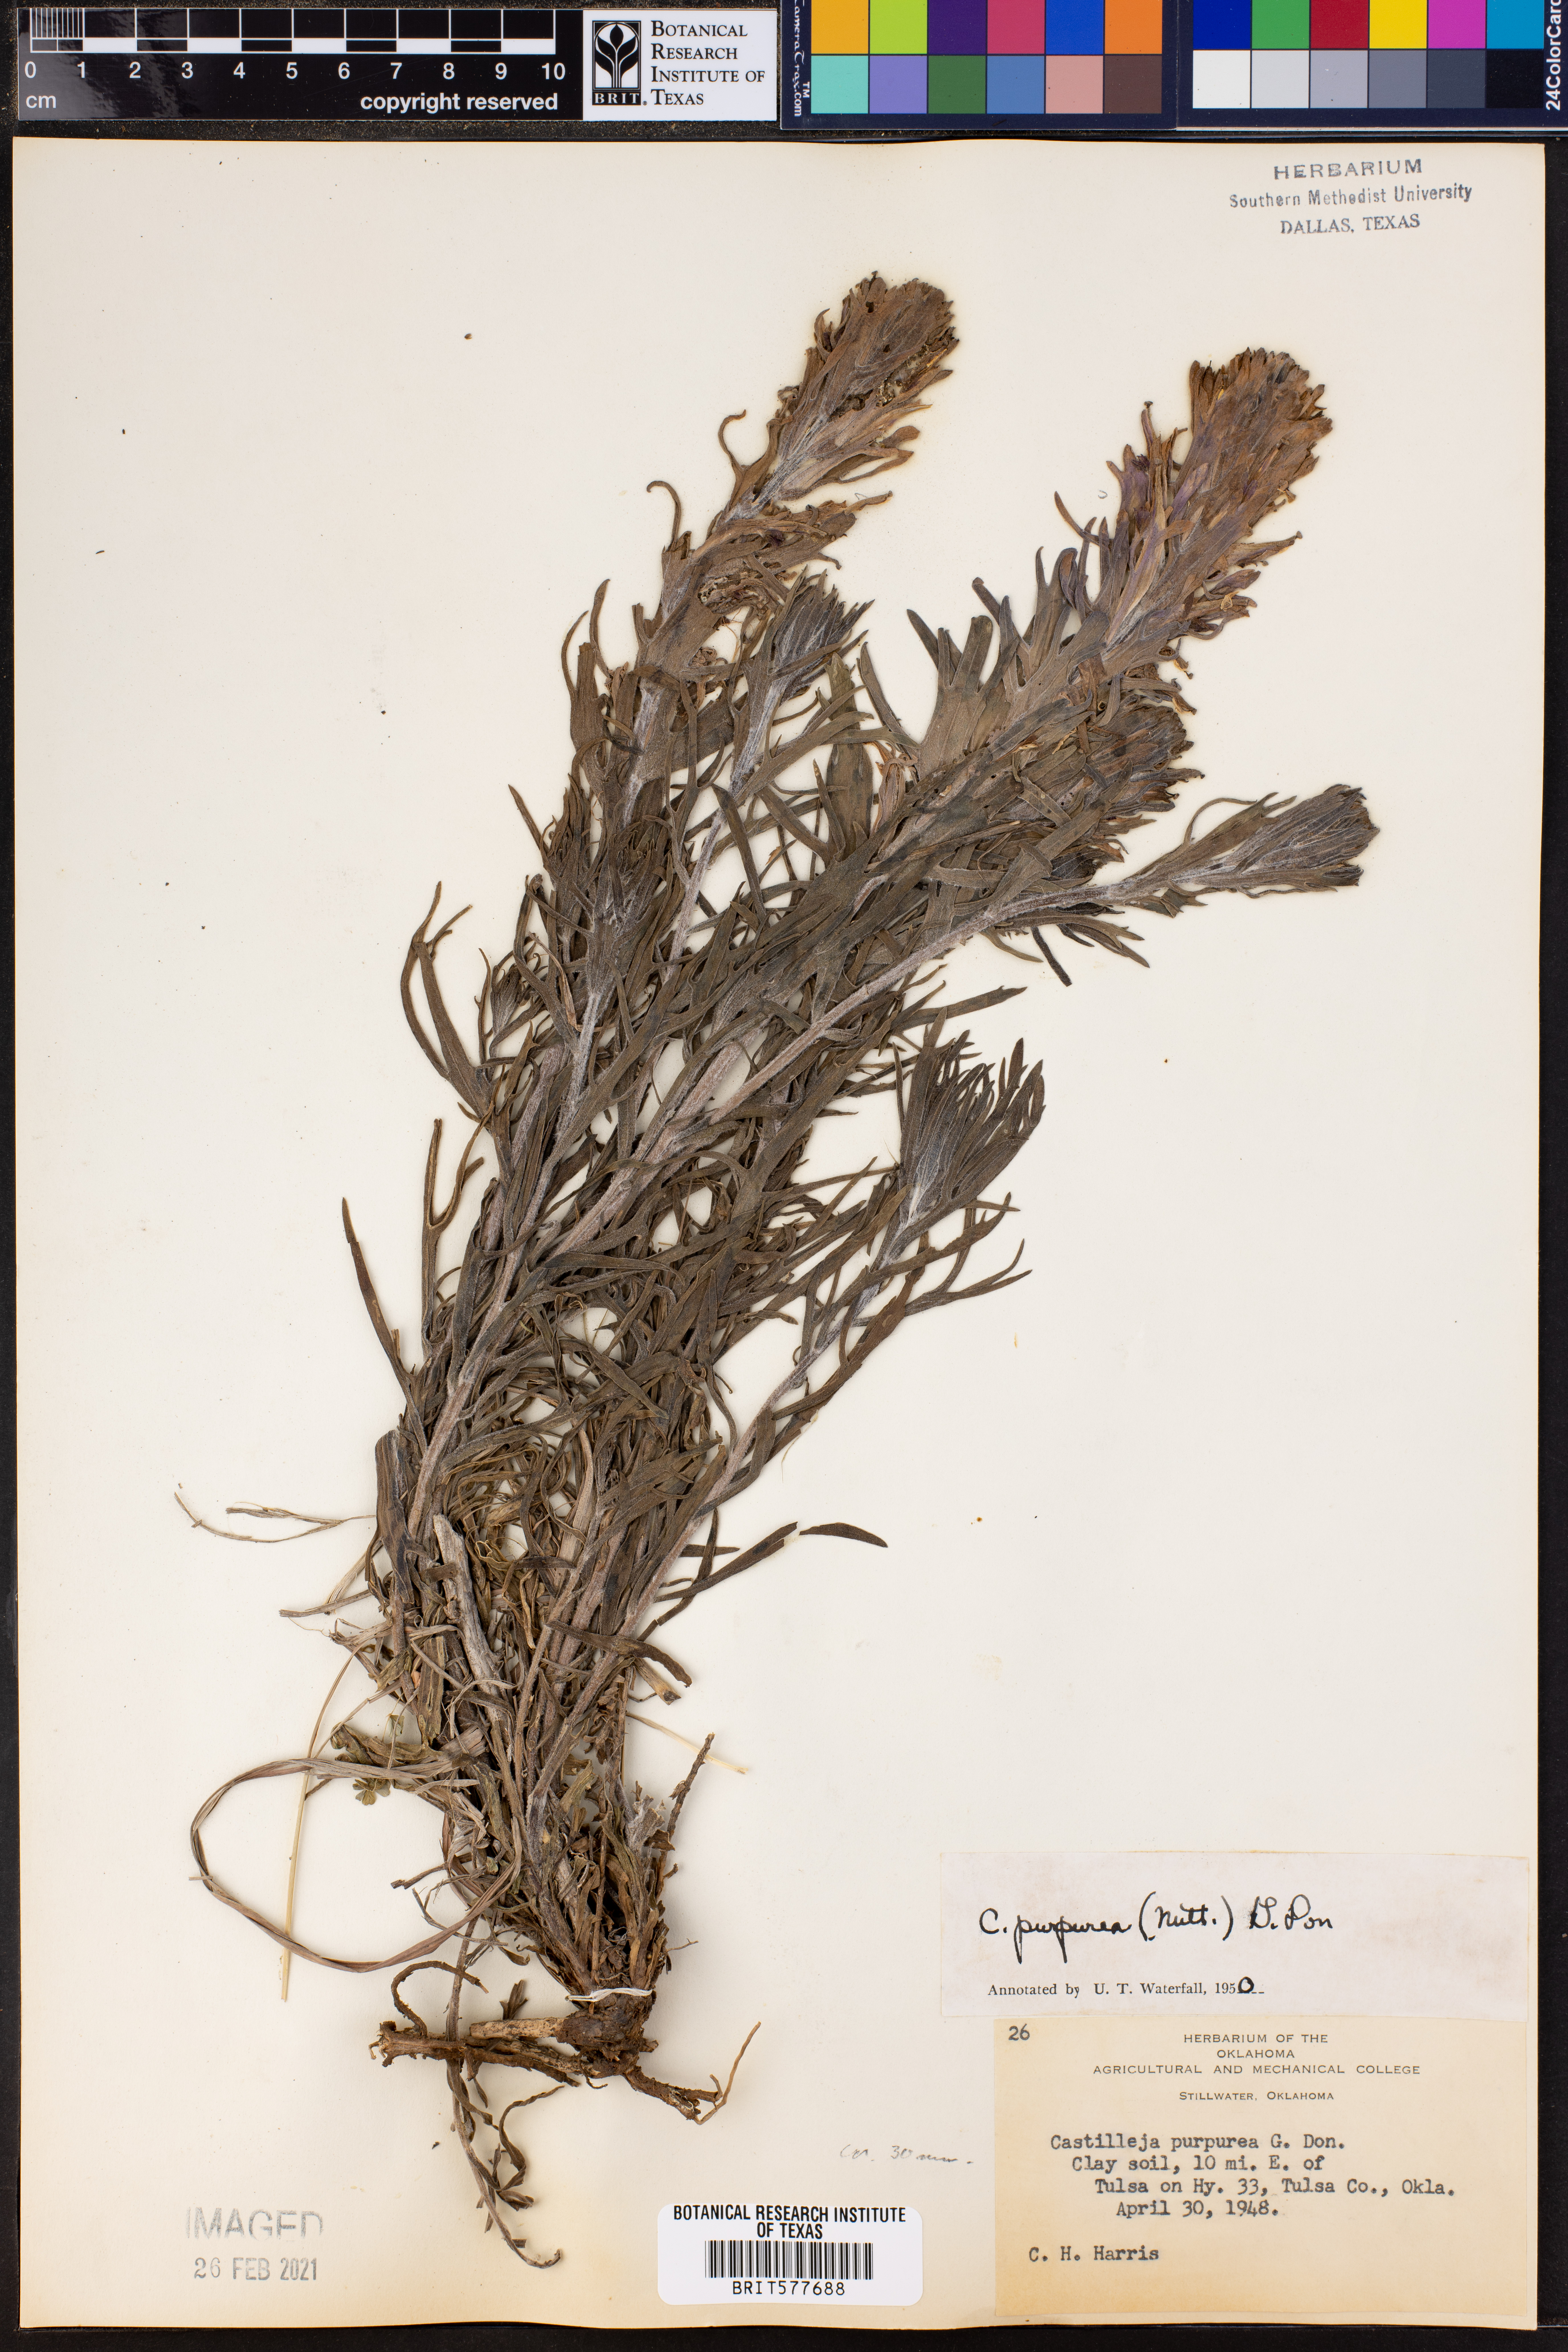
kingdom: Plantae
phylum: Tracheophyta
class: Magnoliopsida
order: Lamiales
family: Orobanchaceae
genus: Castilleja
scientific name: Castilleja purpurea
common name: Plains paintbrush
